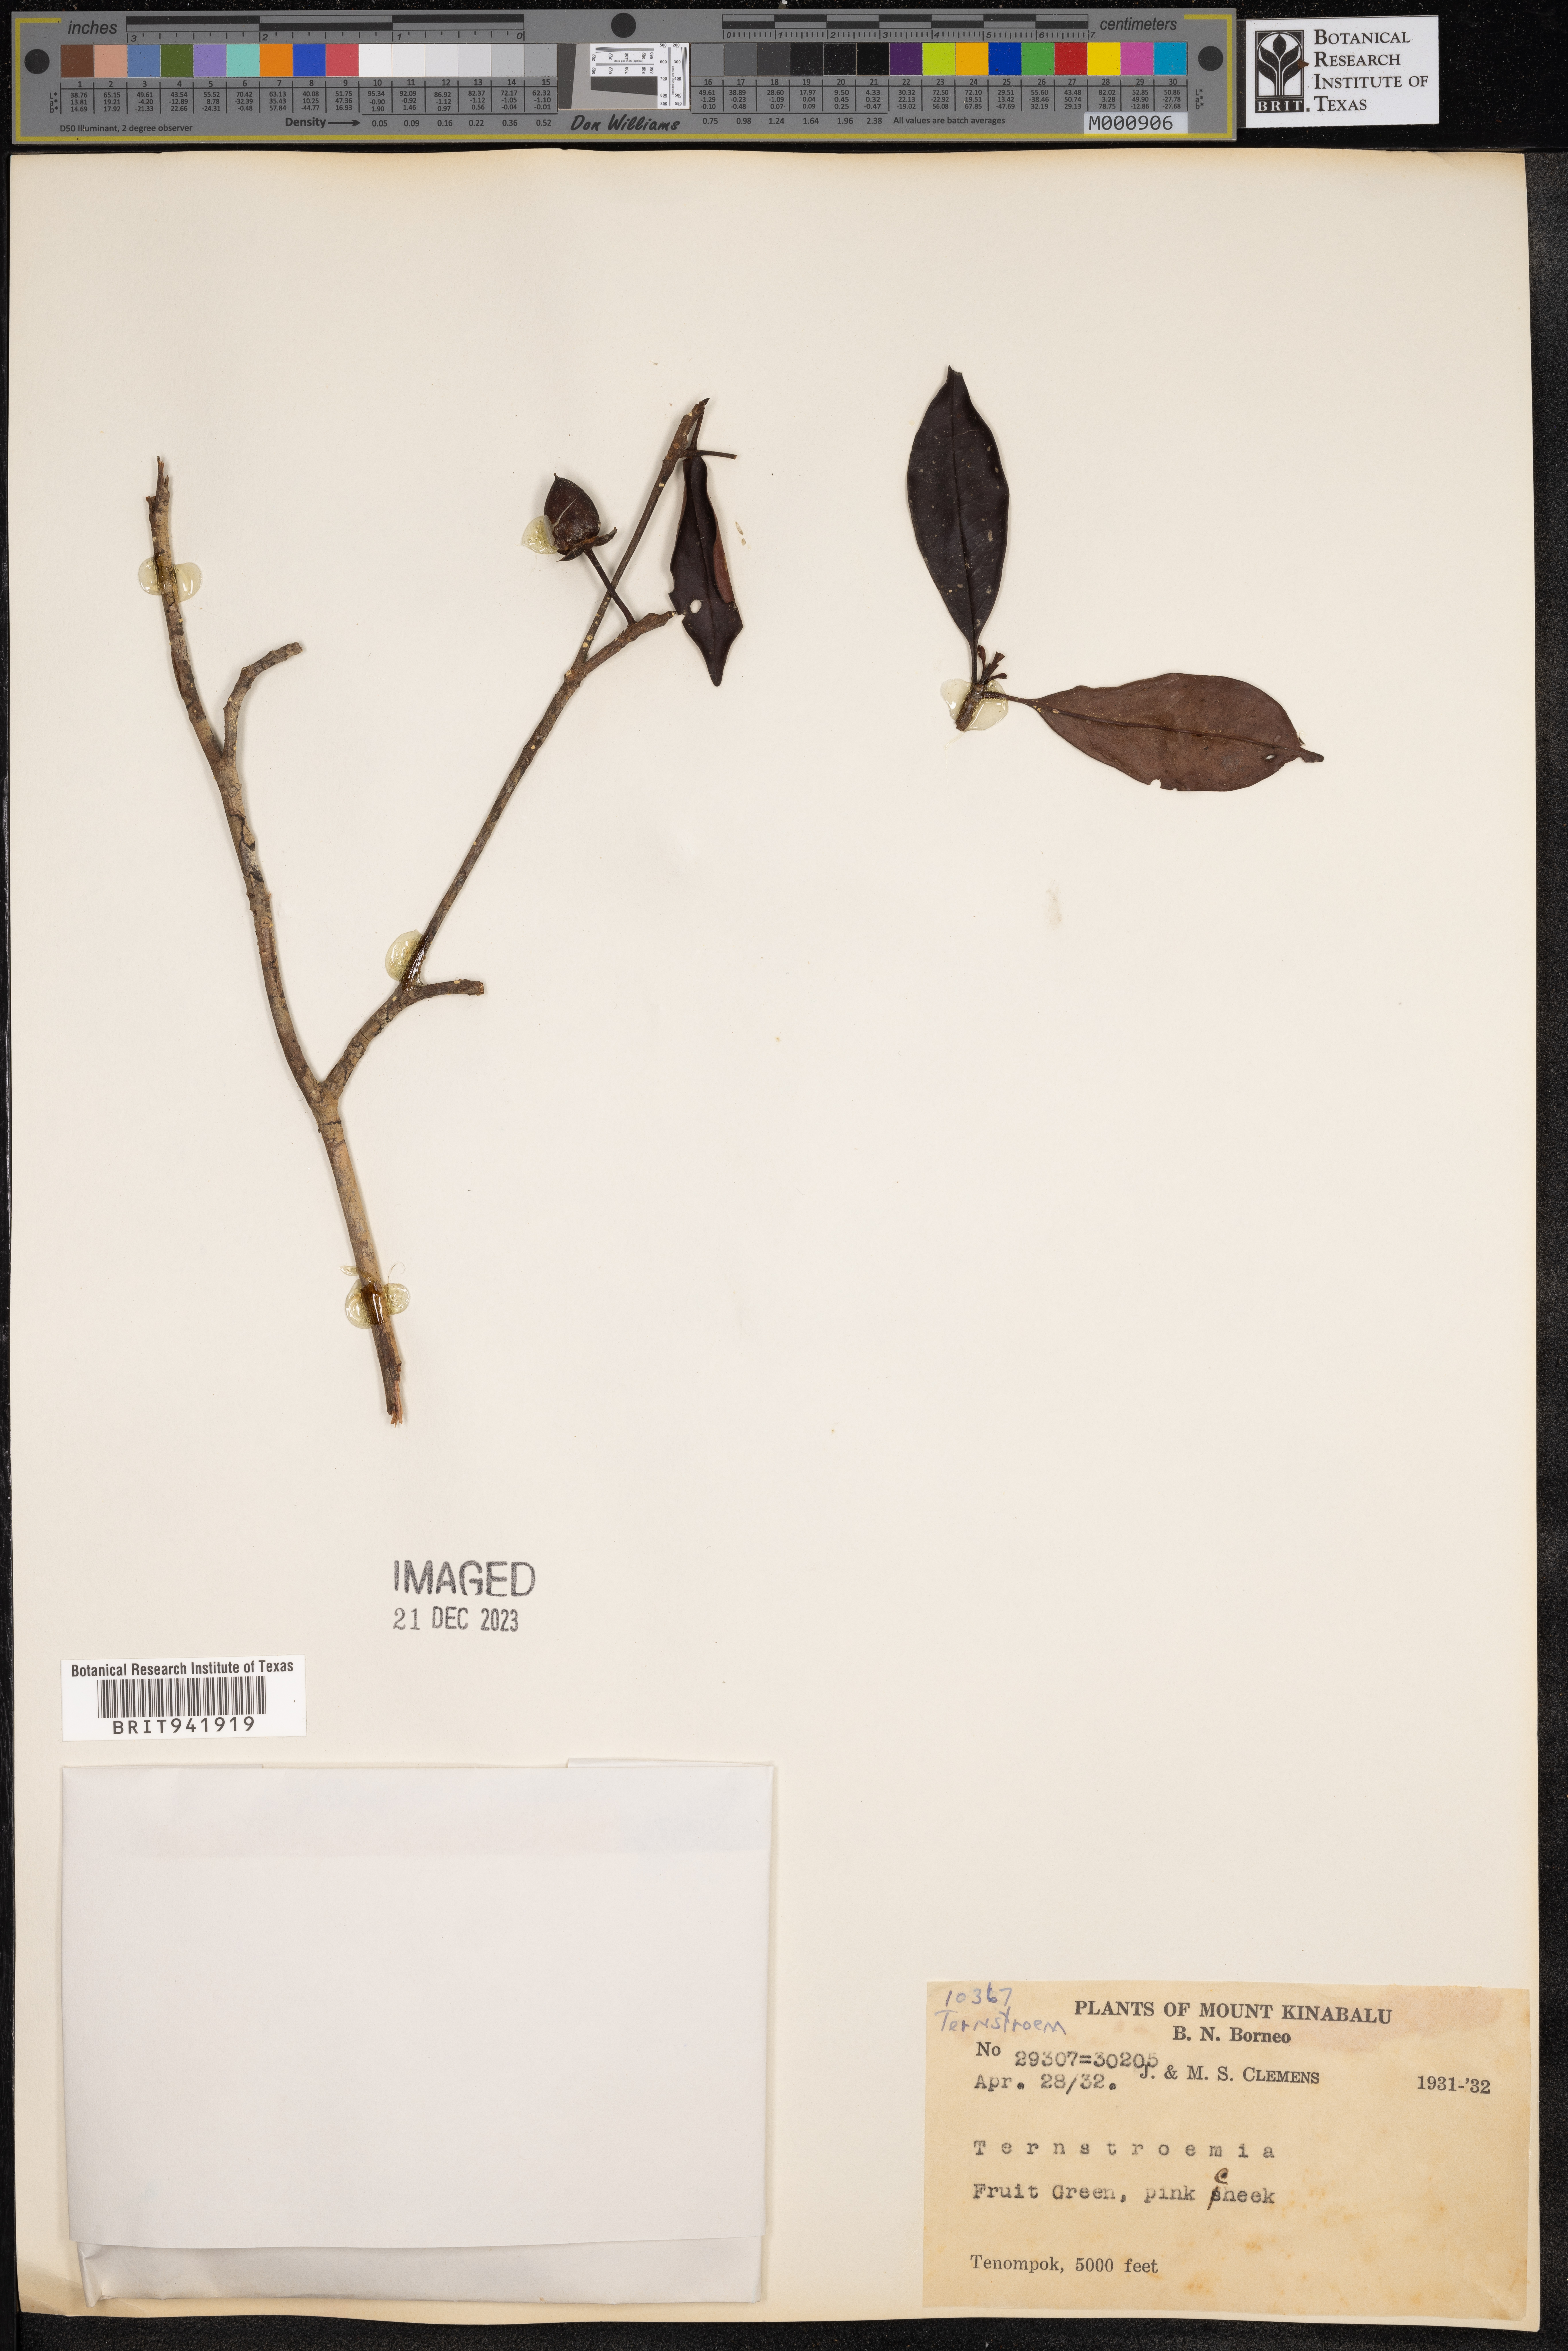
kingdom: Plantae
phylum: Tracheophyta
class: Magnoliopsida
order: Ericales
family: Theaceae
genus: Terustroemia
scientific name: Terustroemia
